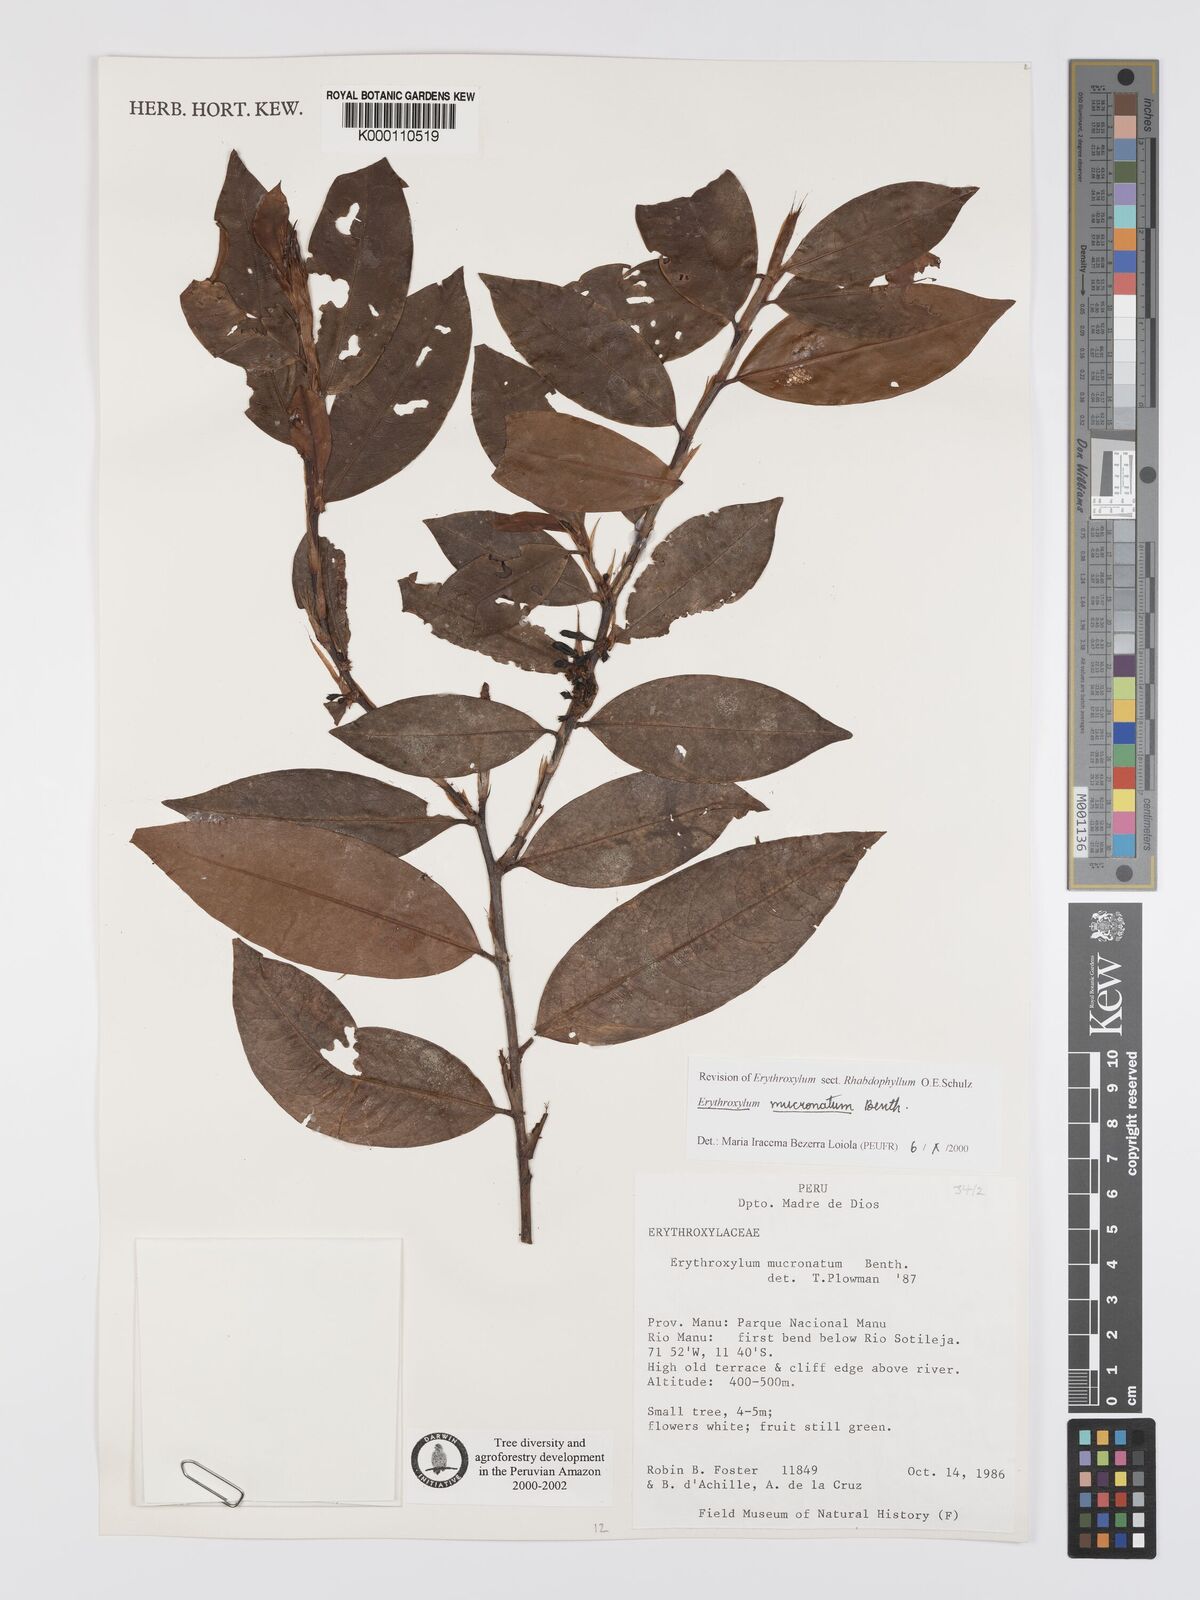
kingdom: Plantae
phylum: Tracheophyta
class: Magnoliopsida
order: Malpighiales
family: Erythroxylaceae
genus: Erythroxylum
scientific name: Erythroxylum mucronatum
